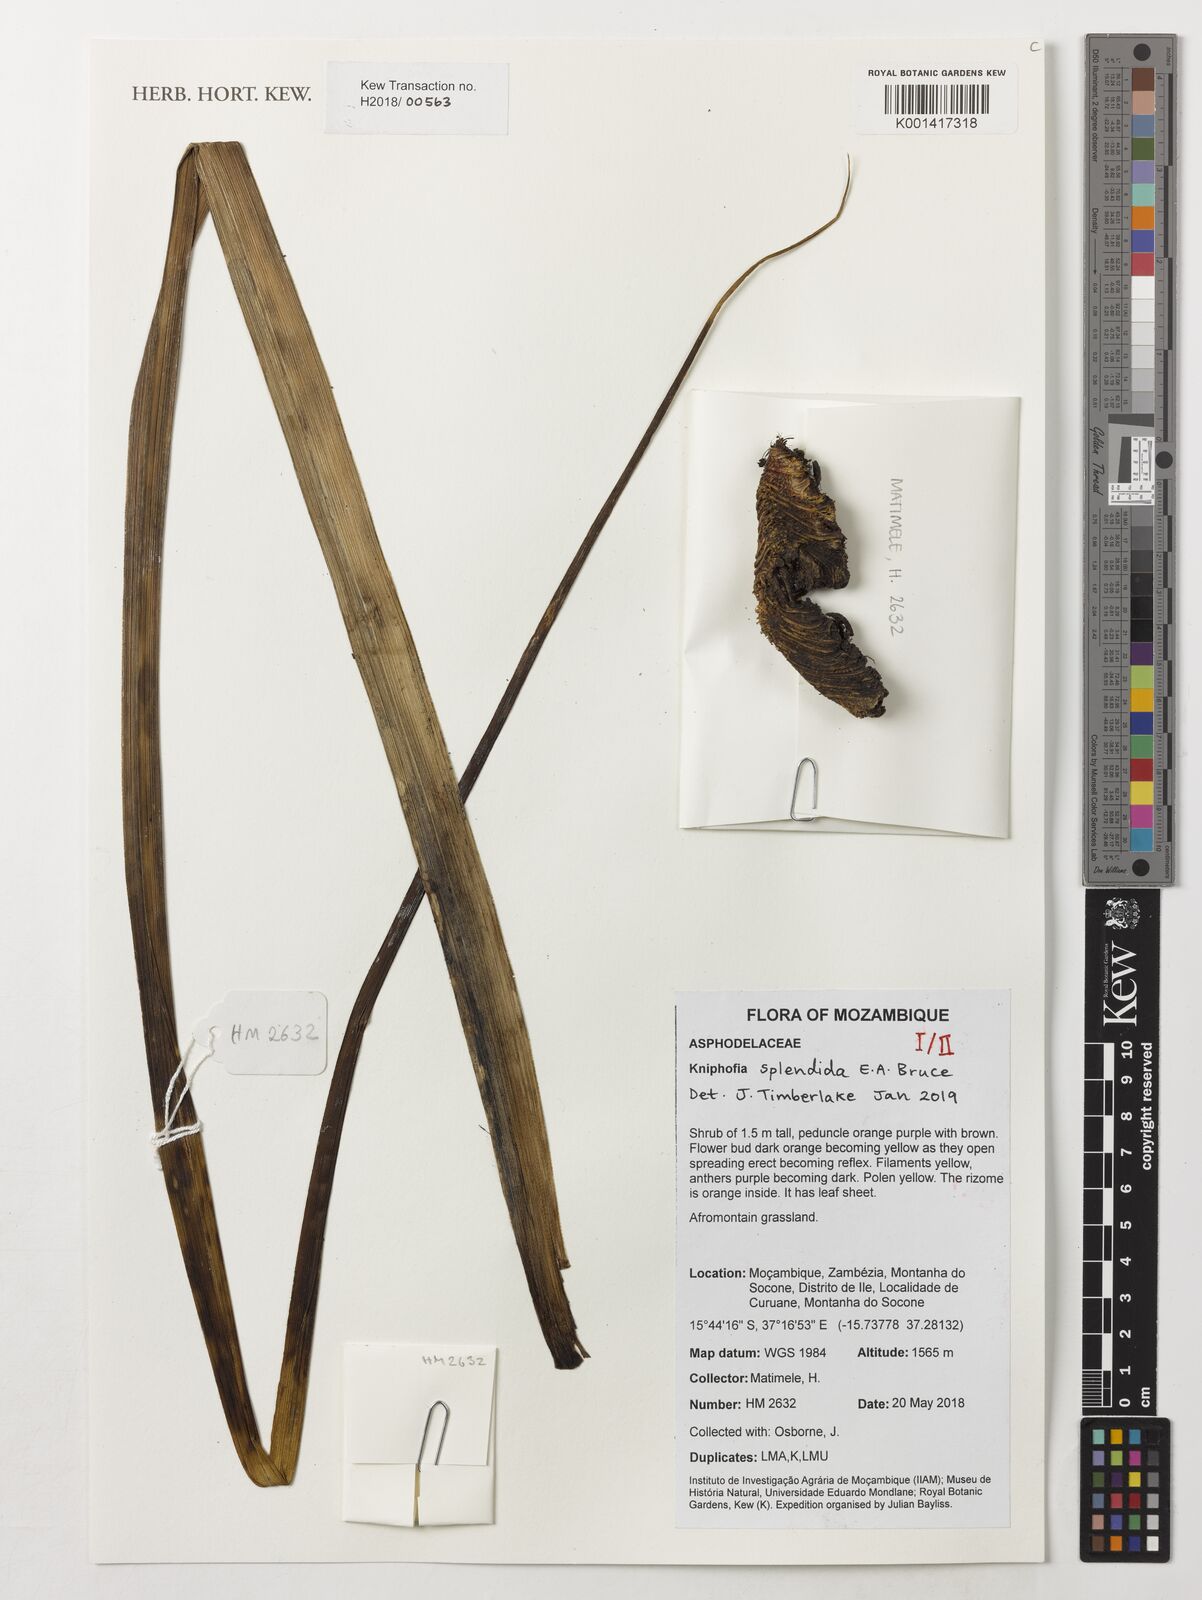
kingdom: Plantae
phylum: Tracheophyta
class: Liliopsida
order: Asparagales
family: Asphodelaceae
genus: Kniphofia
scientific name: Kniphofia splendida
